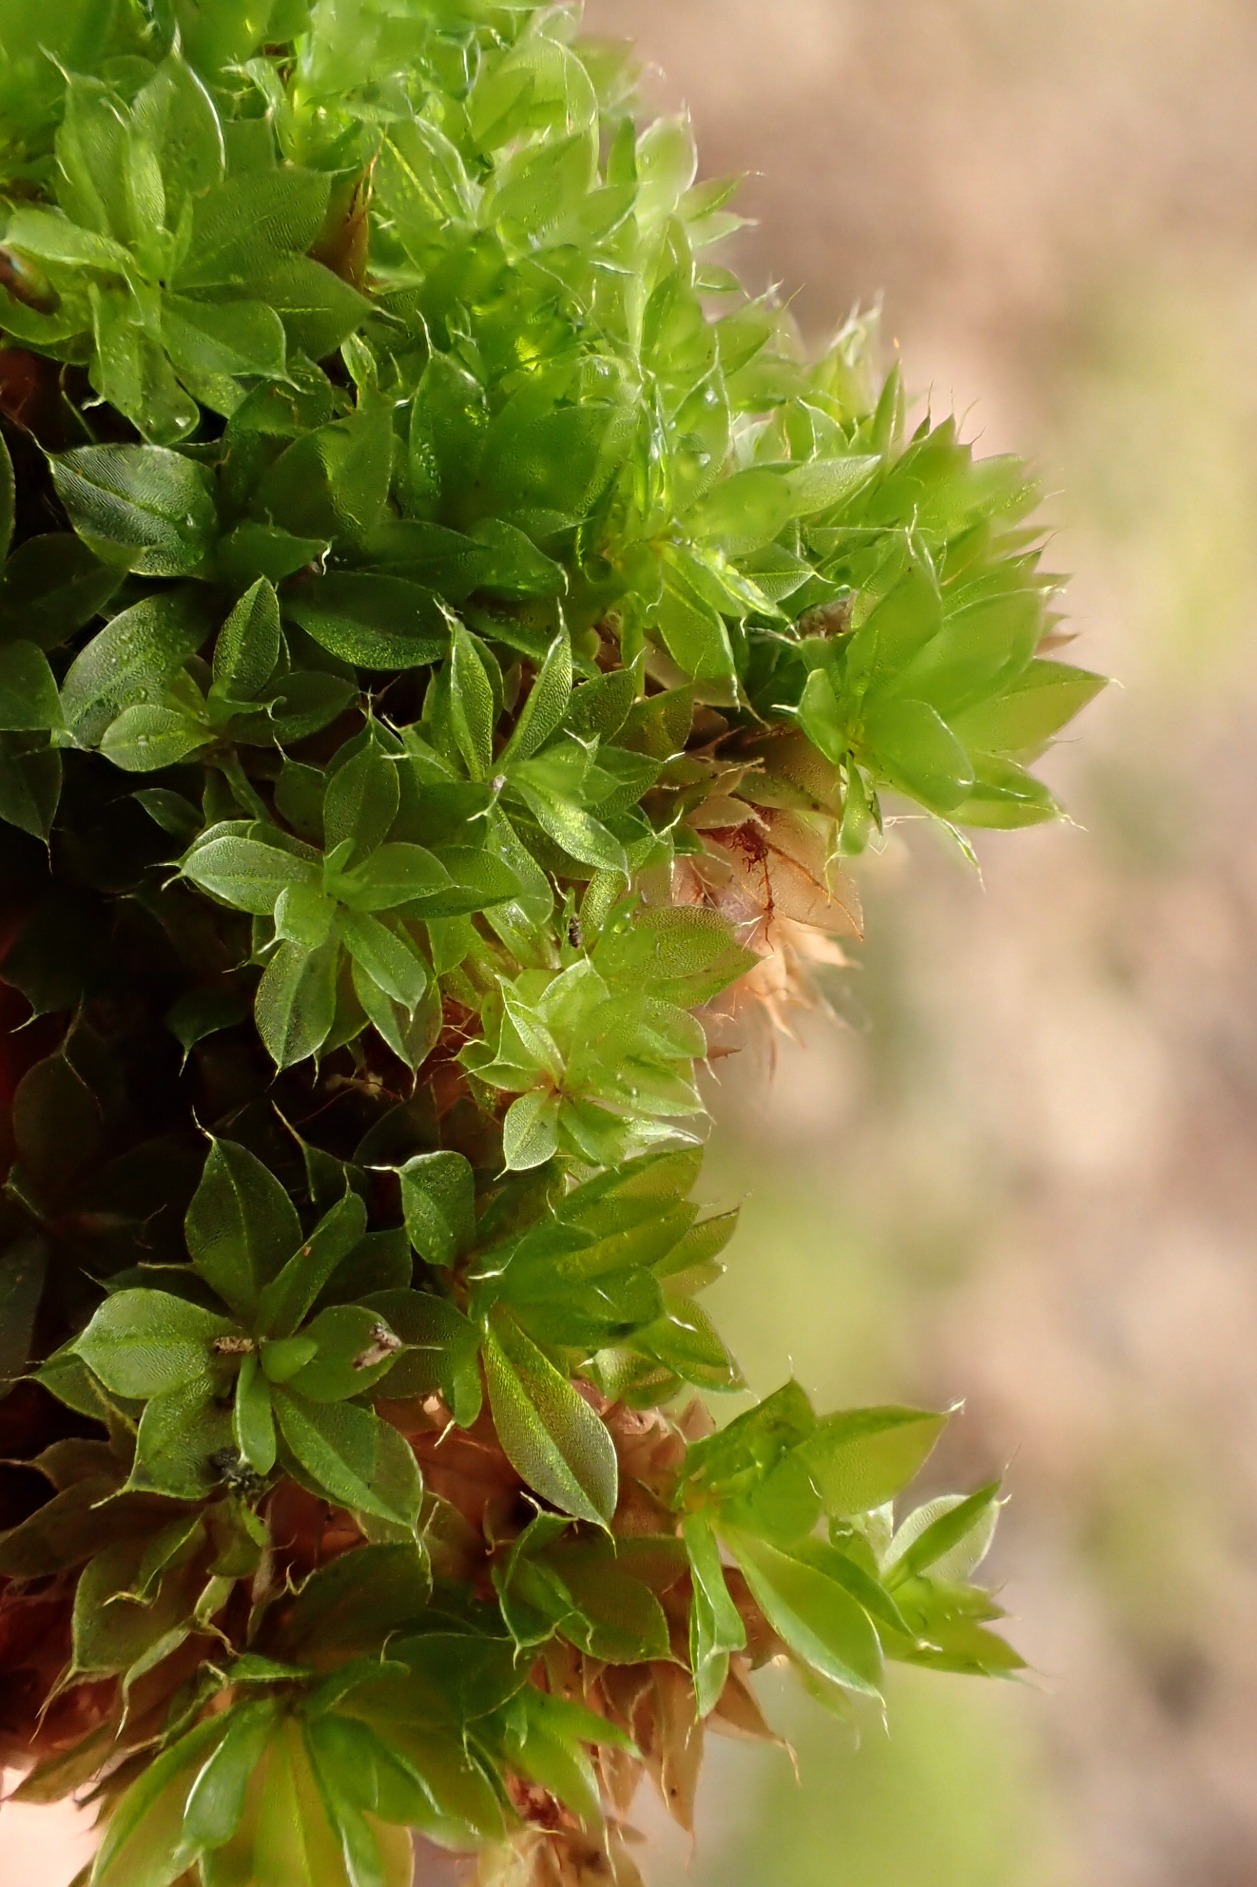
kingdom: Plantae
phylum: Bryophyta
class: Bryopsida
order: Bryales
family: Bryaceae
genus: Rosulabryum
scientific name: Rosulabryum capillare
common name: Hårspidset bryum
